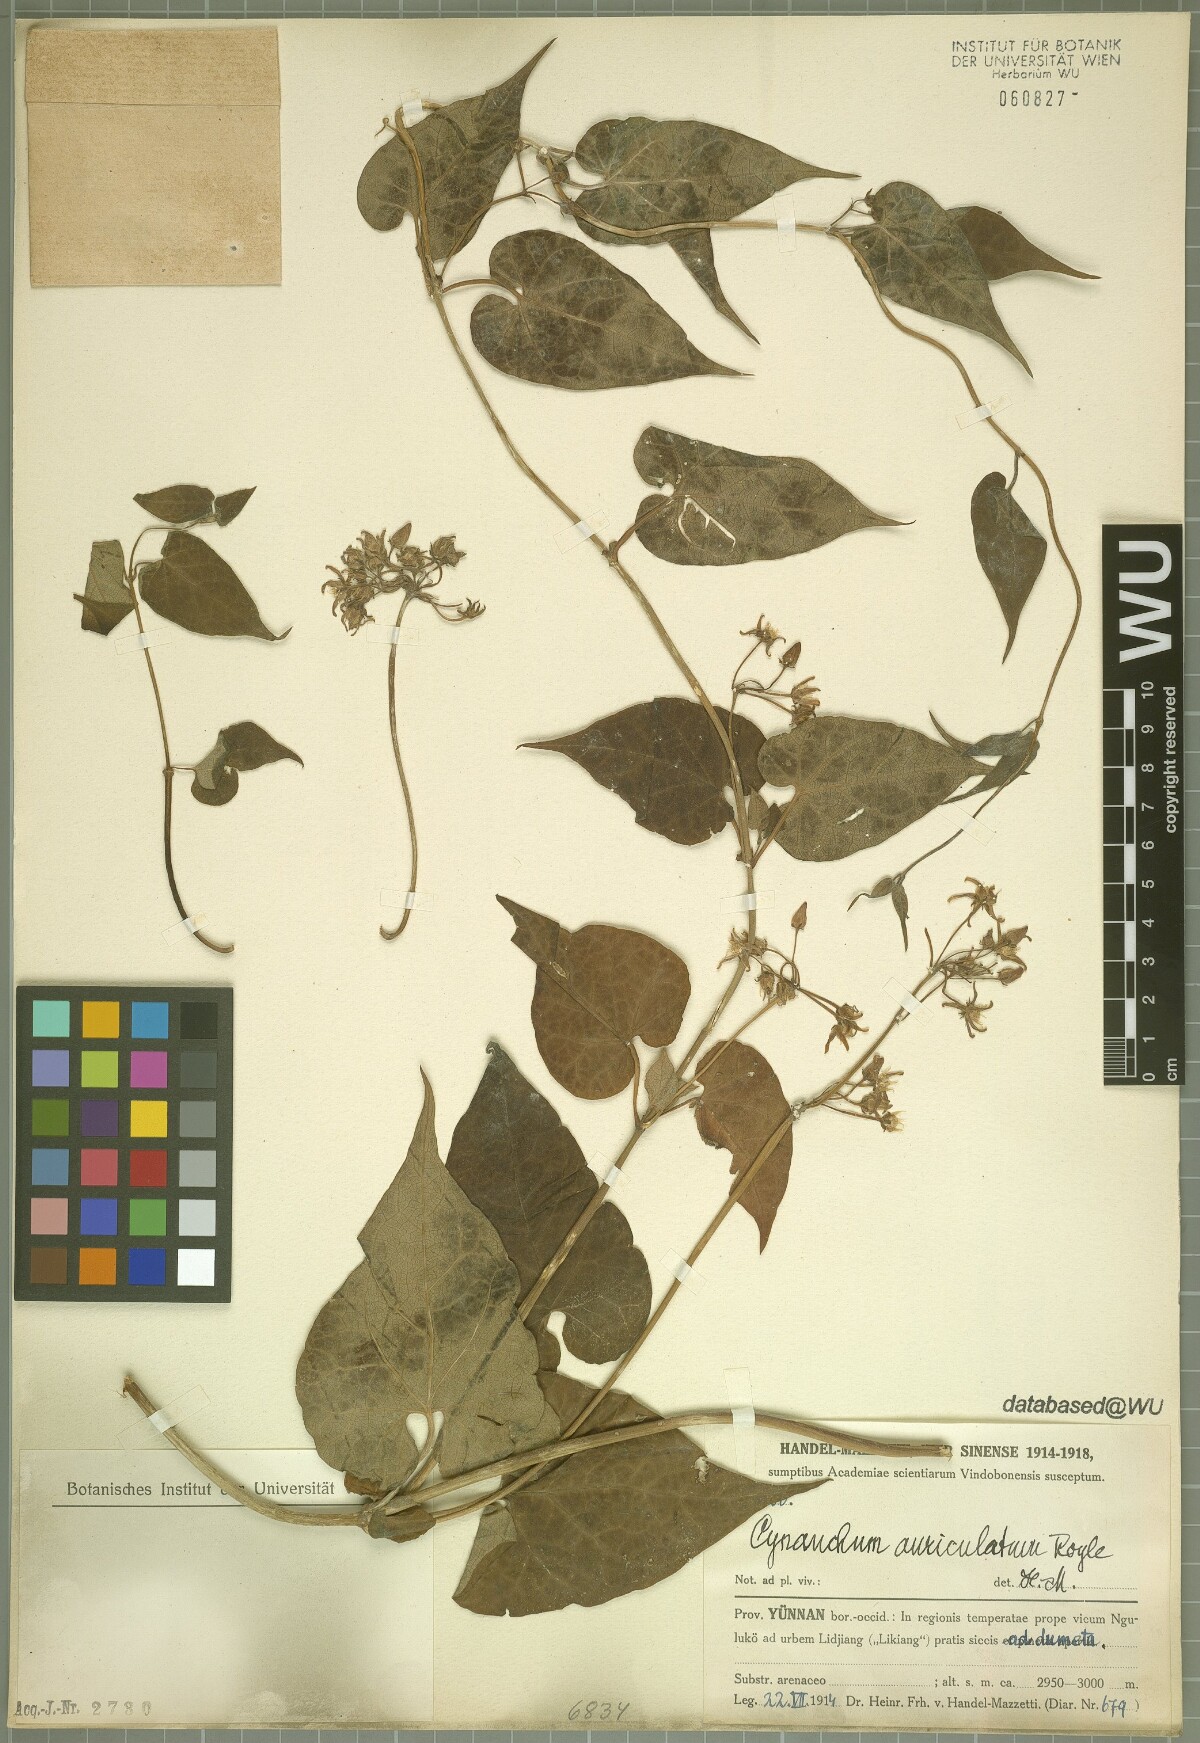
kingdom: Plantae
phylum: Tracheophyta
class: Magnoliopsida
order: Gentianales
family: Apocynaceae
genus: Cynanchum
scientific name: Cynanchum auriculatum
